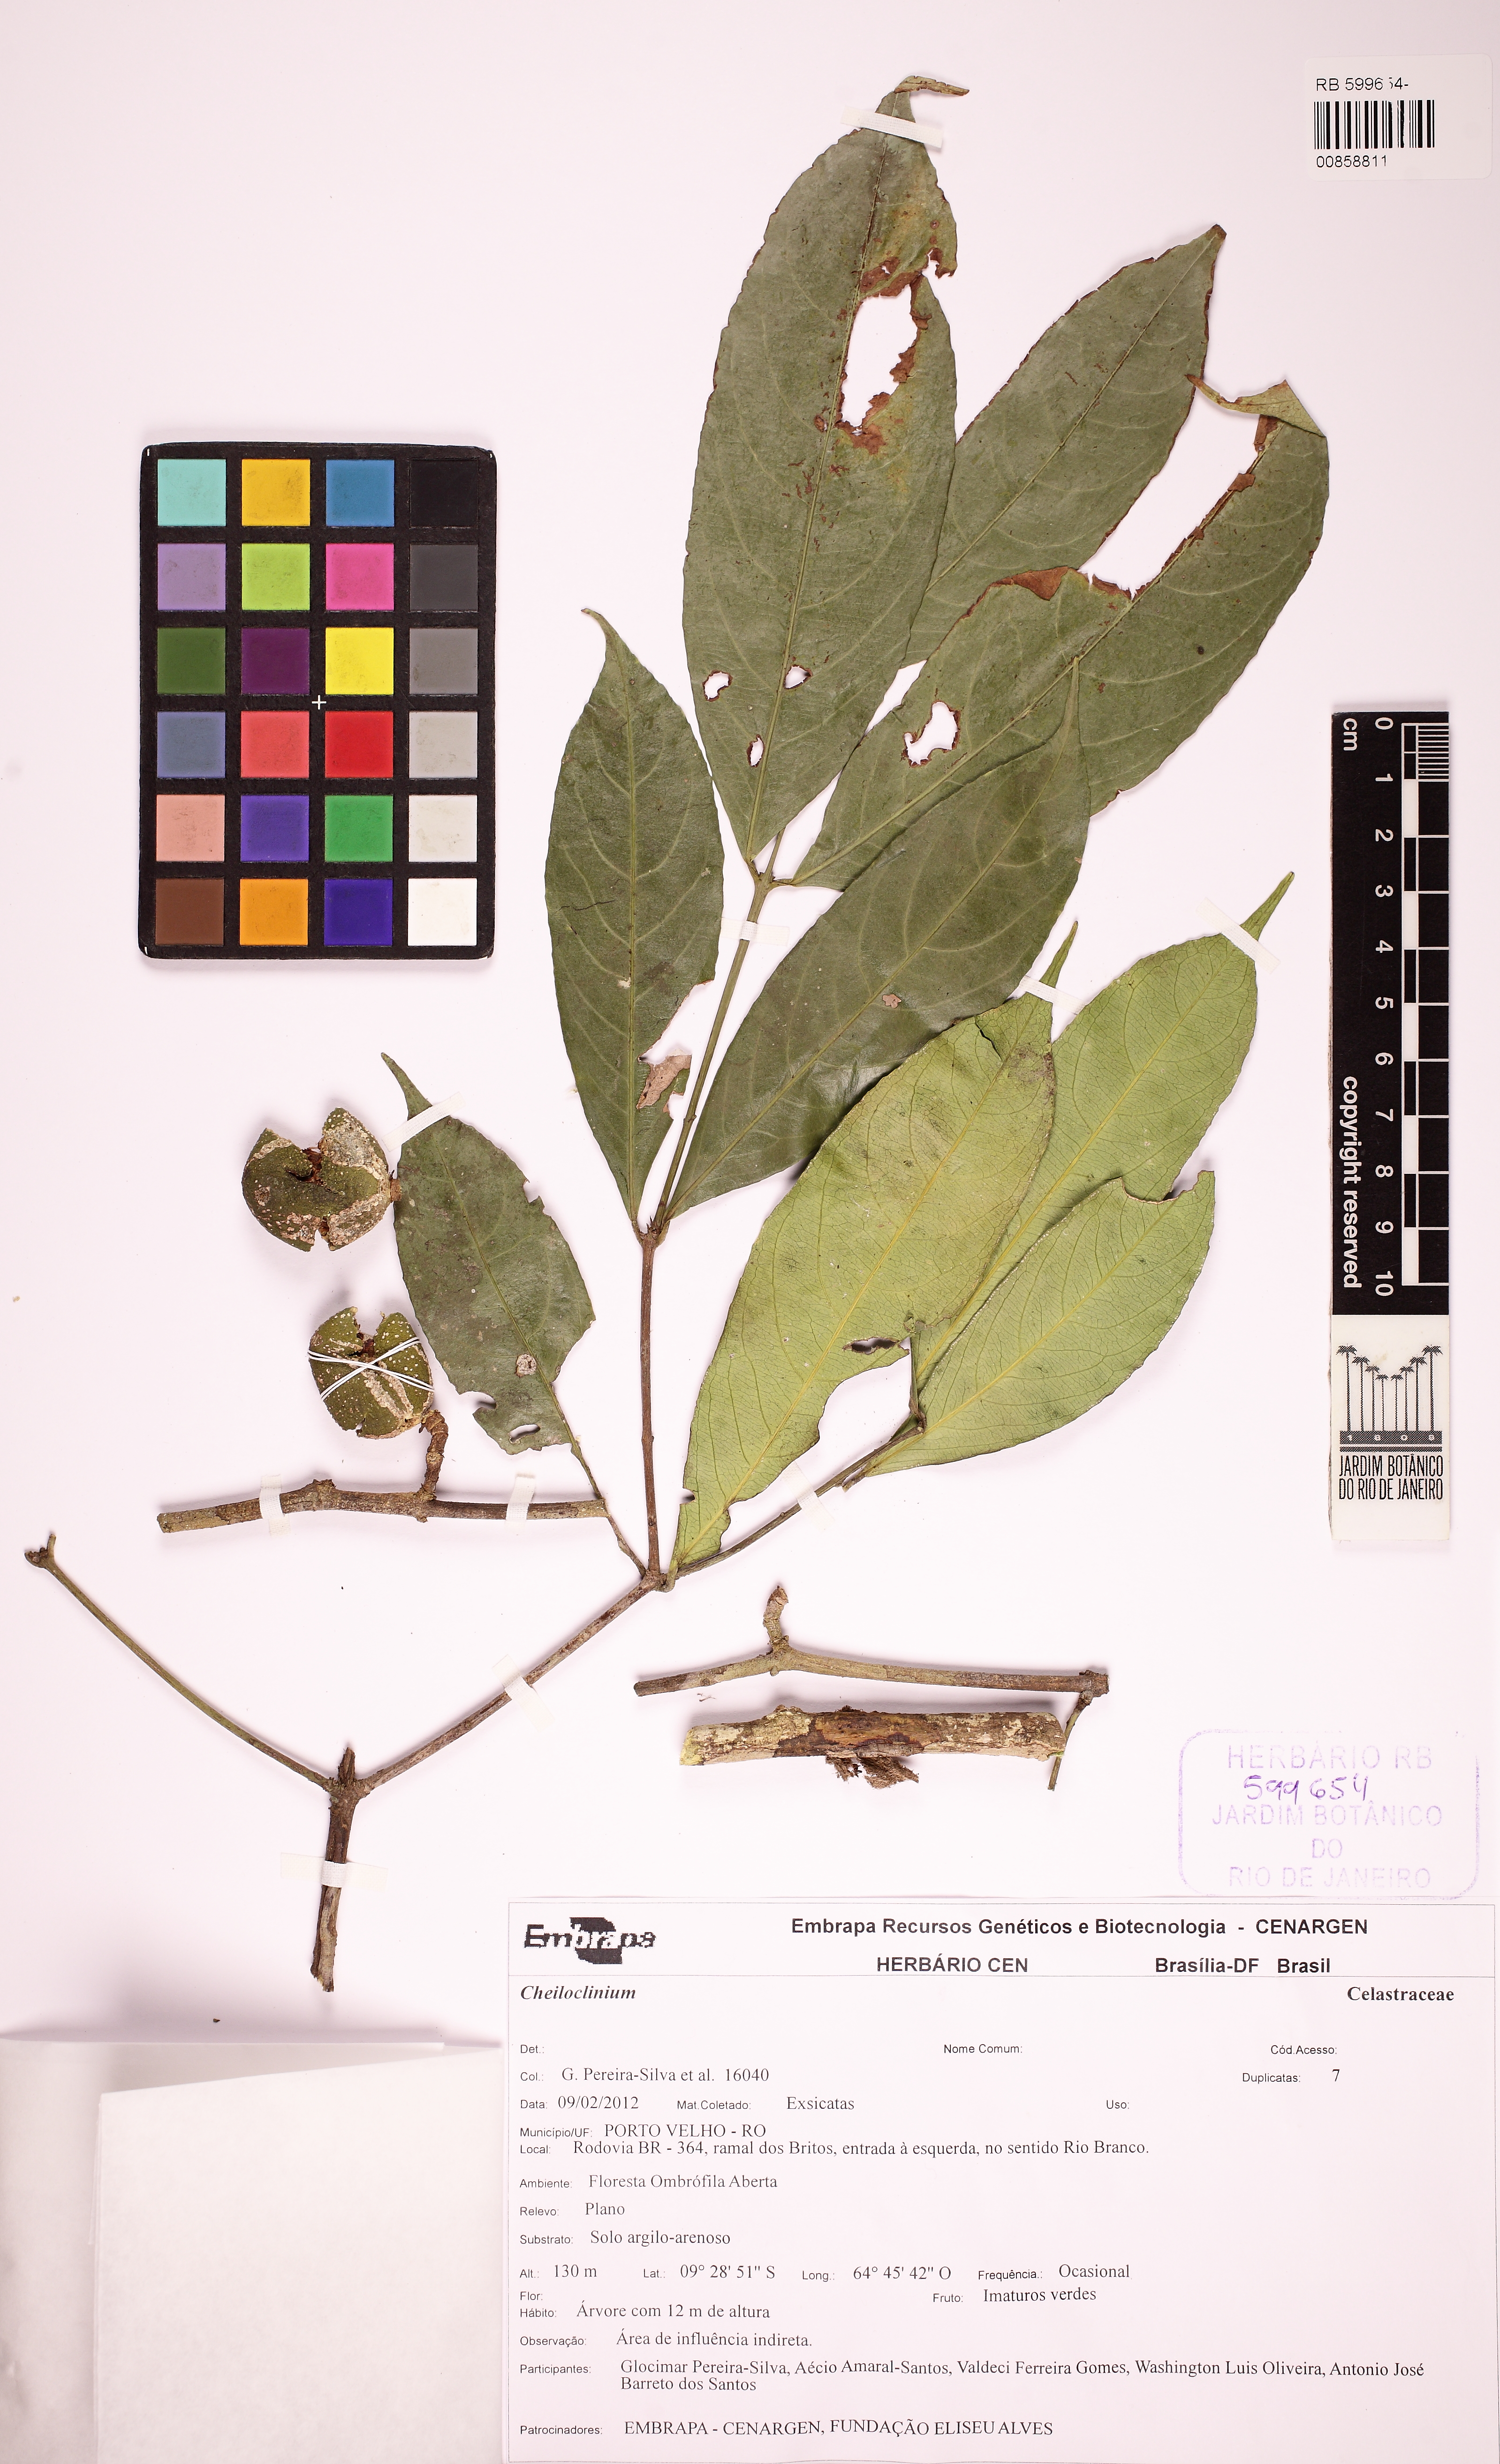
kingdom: Plantae
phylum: Tracheophyta
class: Magnoliopsida
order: Celastrales
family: Celastraceae
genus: Cheiloclinium
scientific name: Cheiloclinium
